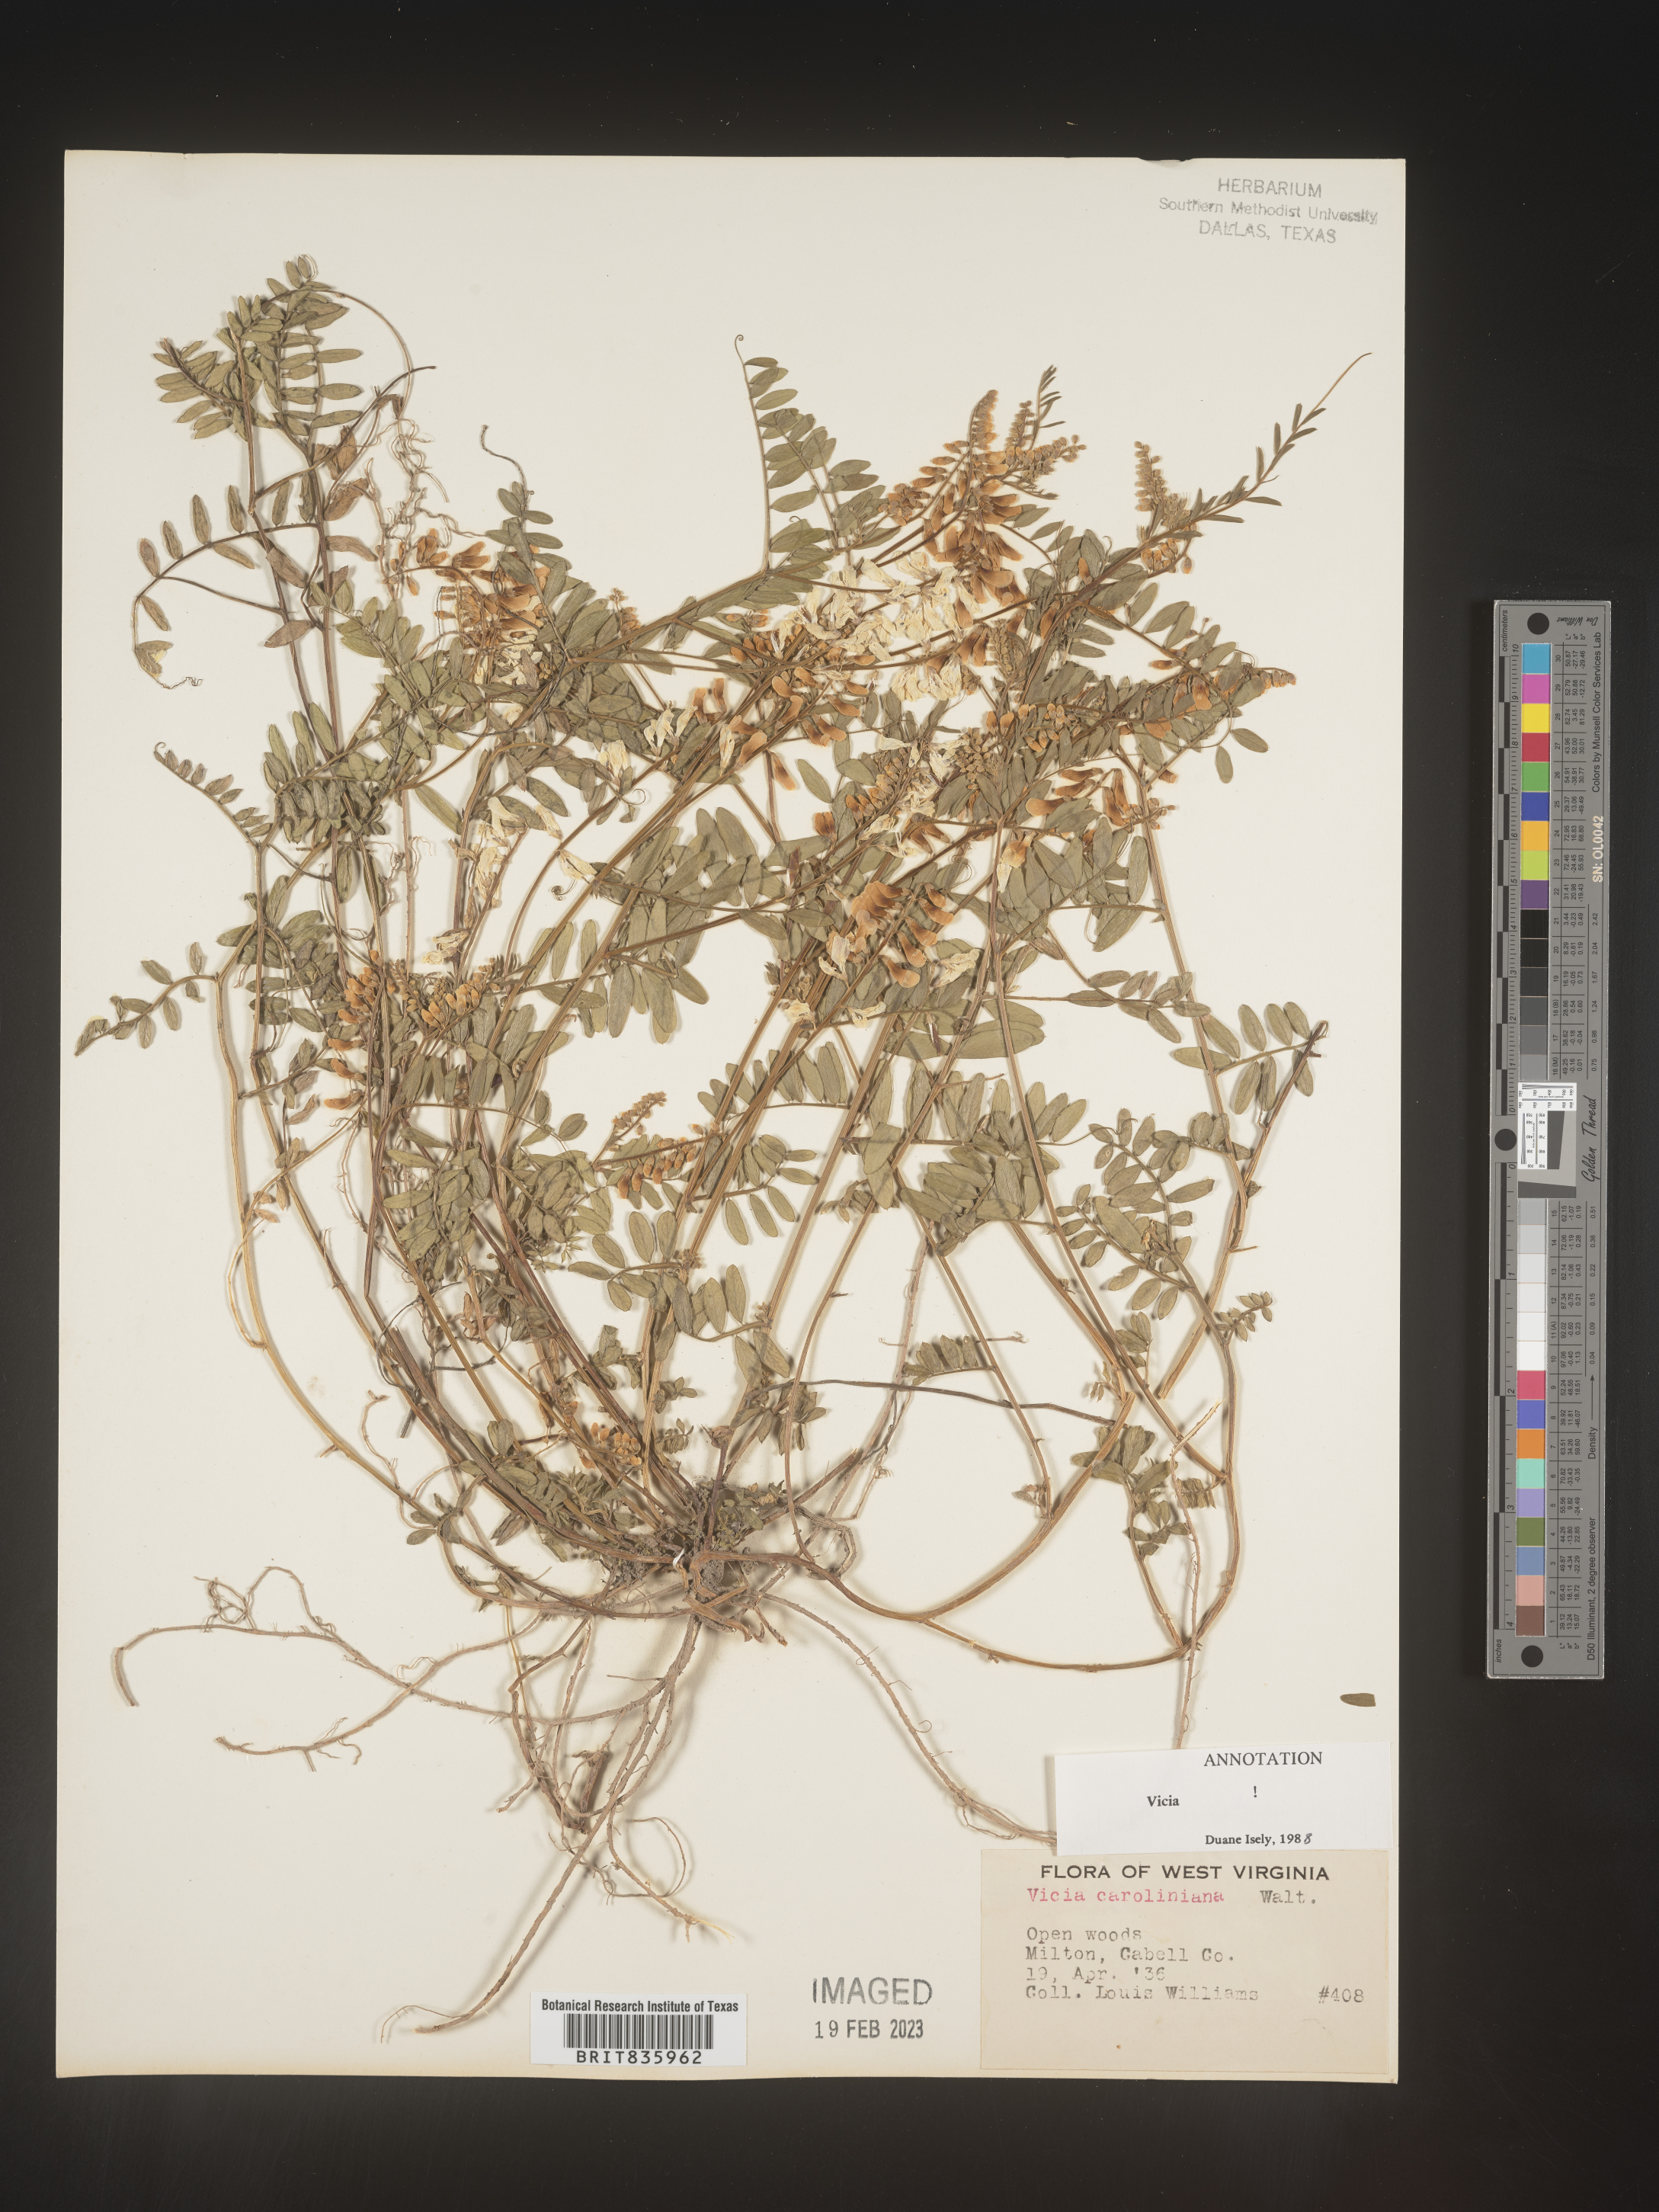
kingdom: Plantae
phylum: Tracheophyta
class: Magnoliopsida
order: Fabales
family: Fabaceae
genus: Vicia
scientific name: Vicia caroliniana
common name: Carolina vetch
